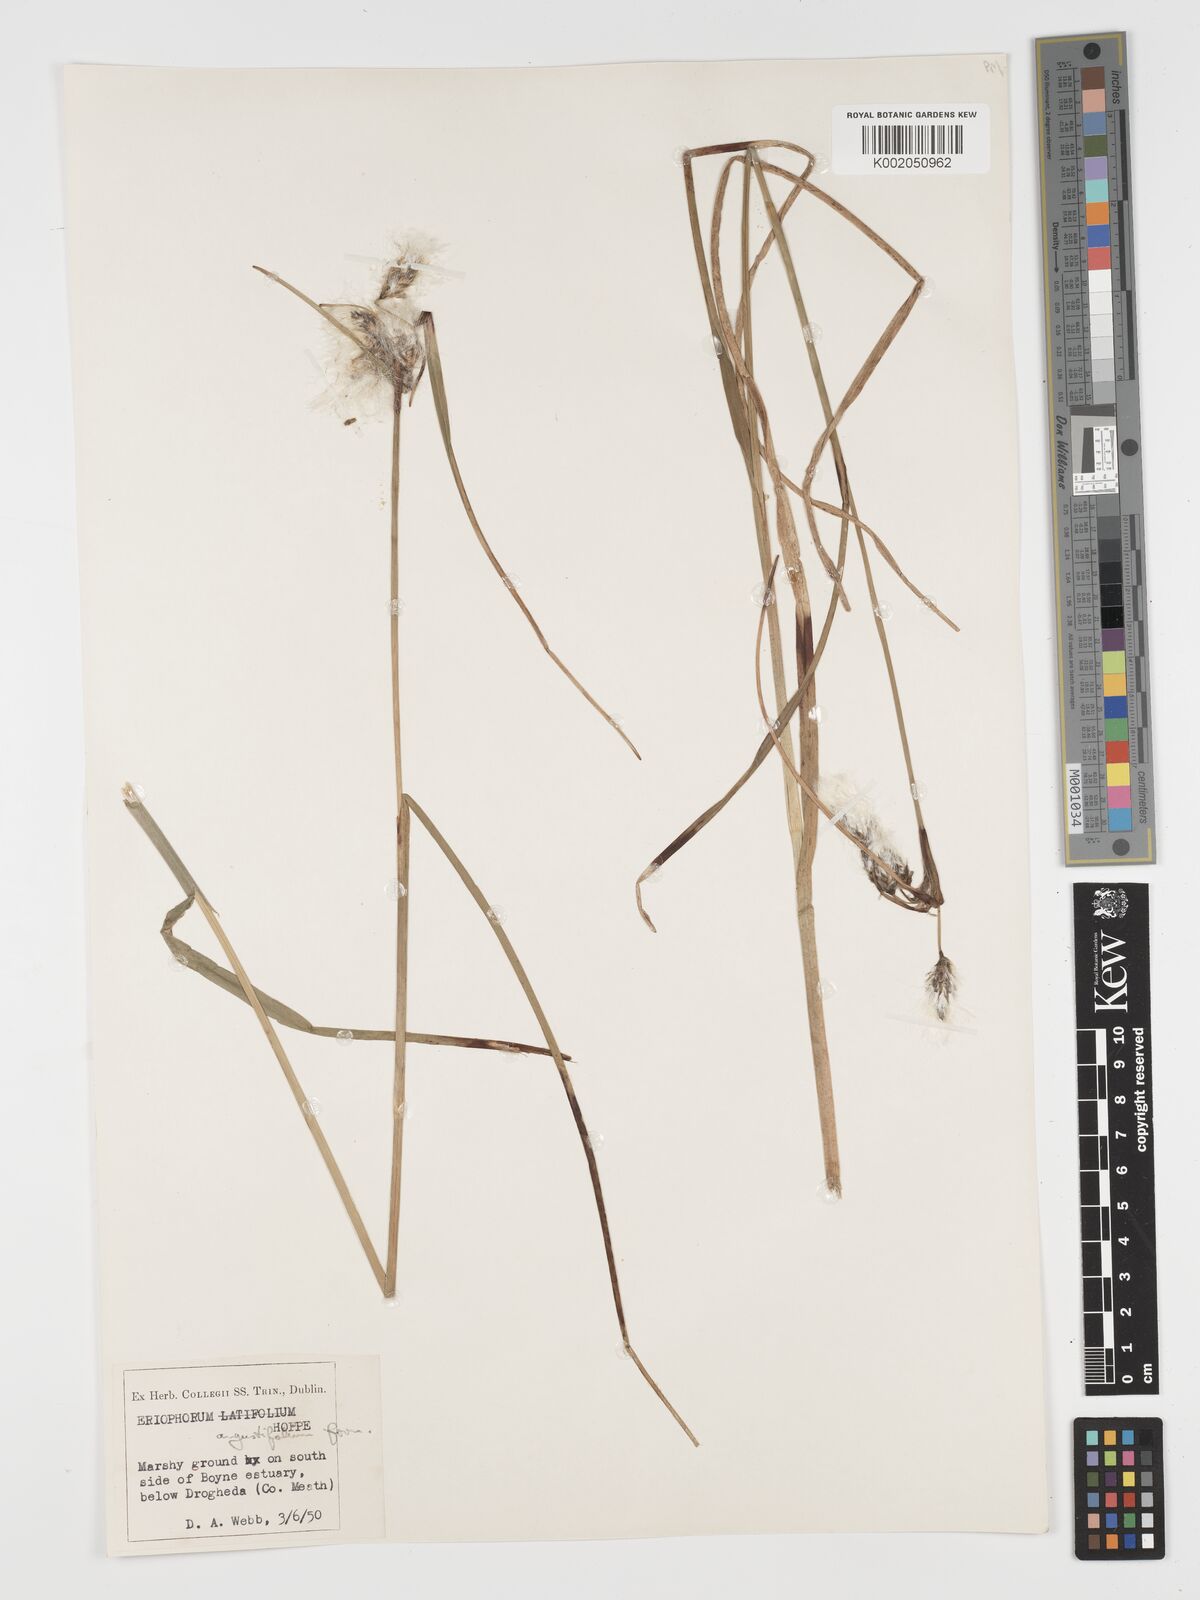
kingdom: Plantae
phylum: Tracheophyta
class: Liliopsida
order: Poales
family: Cyperaceae
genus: Eriophorum
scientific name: Eriophorum angustifolium
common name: Common cottongrass
